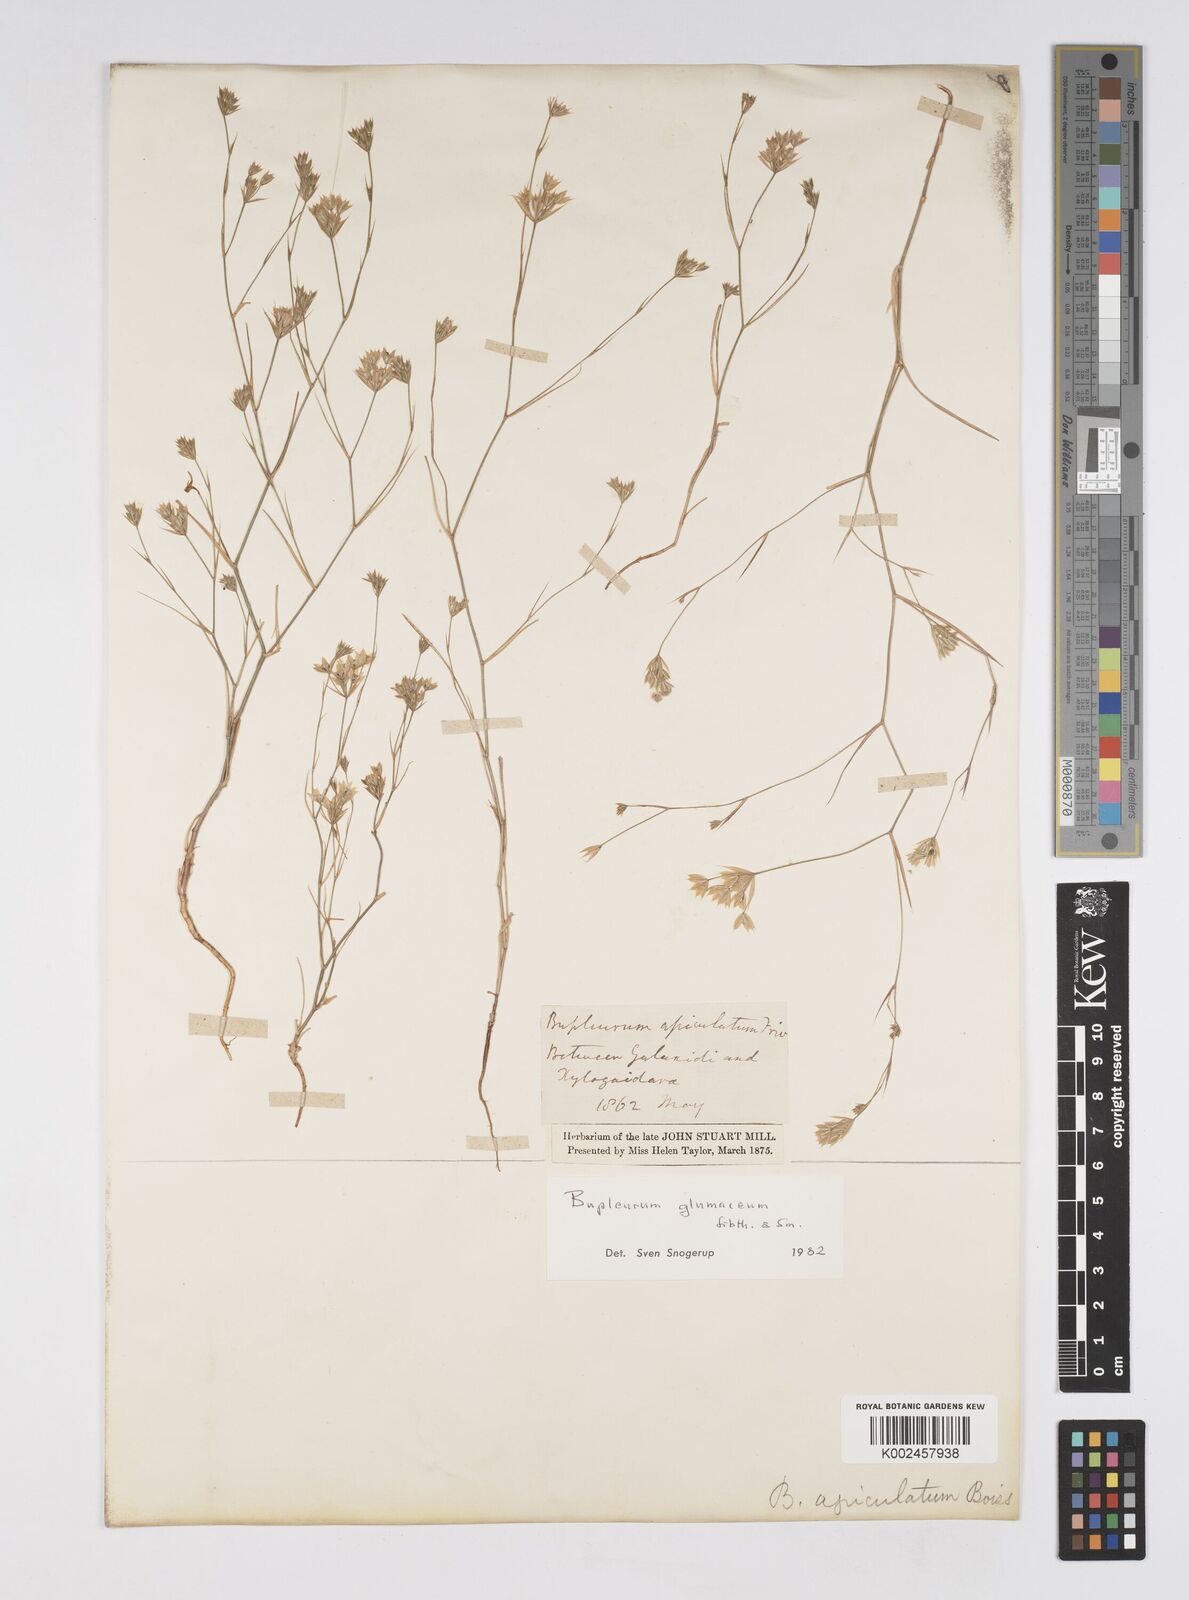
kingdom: Plantae
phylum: Tracheophyta
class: Magnoliopsida
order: Apiales
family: Apiaceae
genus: Bupleurum
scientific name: Bupleurum glumaceum
